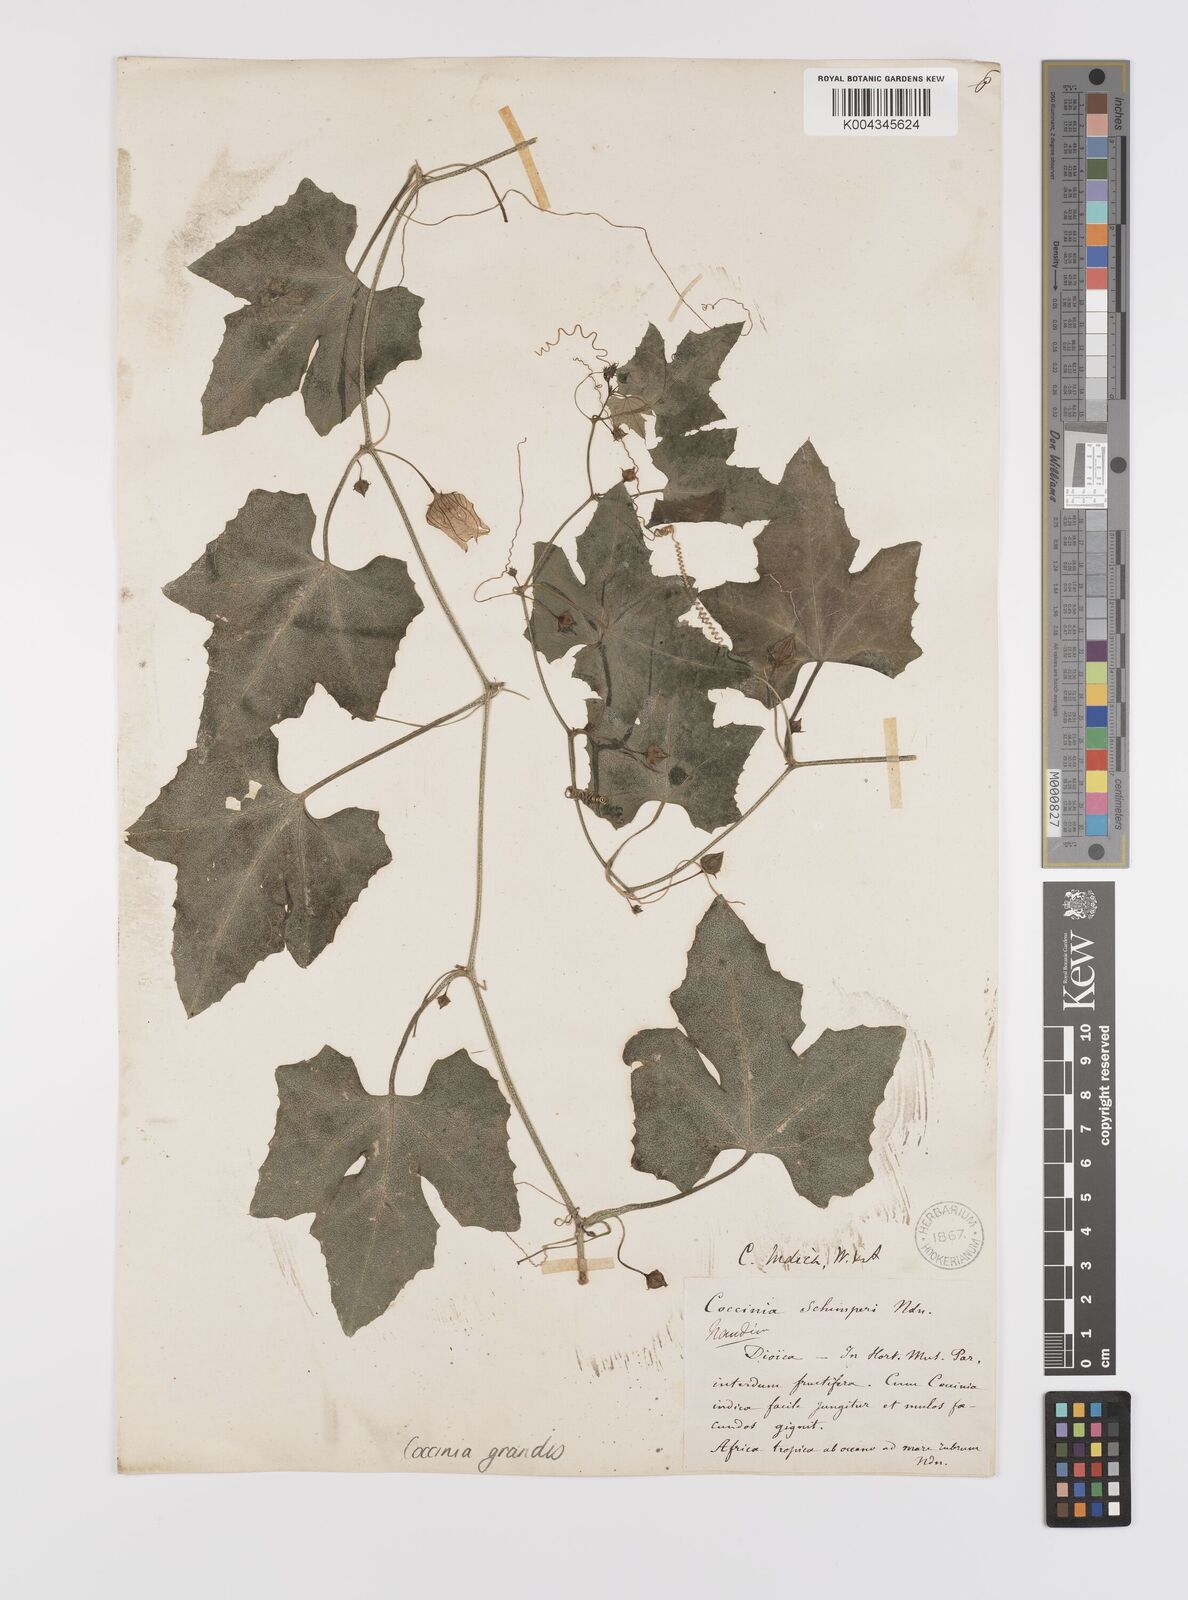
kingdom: Plantae
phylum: Tracheophyta
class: Magnoliopsida
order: Cucurbitales
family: Cucurbitaceae
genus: Coccinia
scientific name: Coccinia grandis
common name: Ivy gourd
